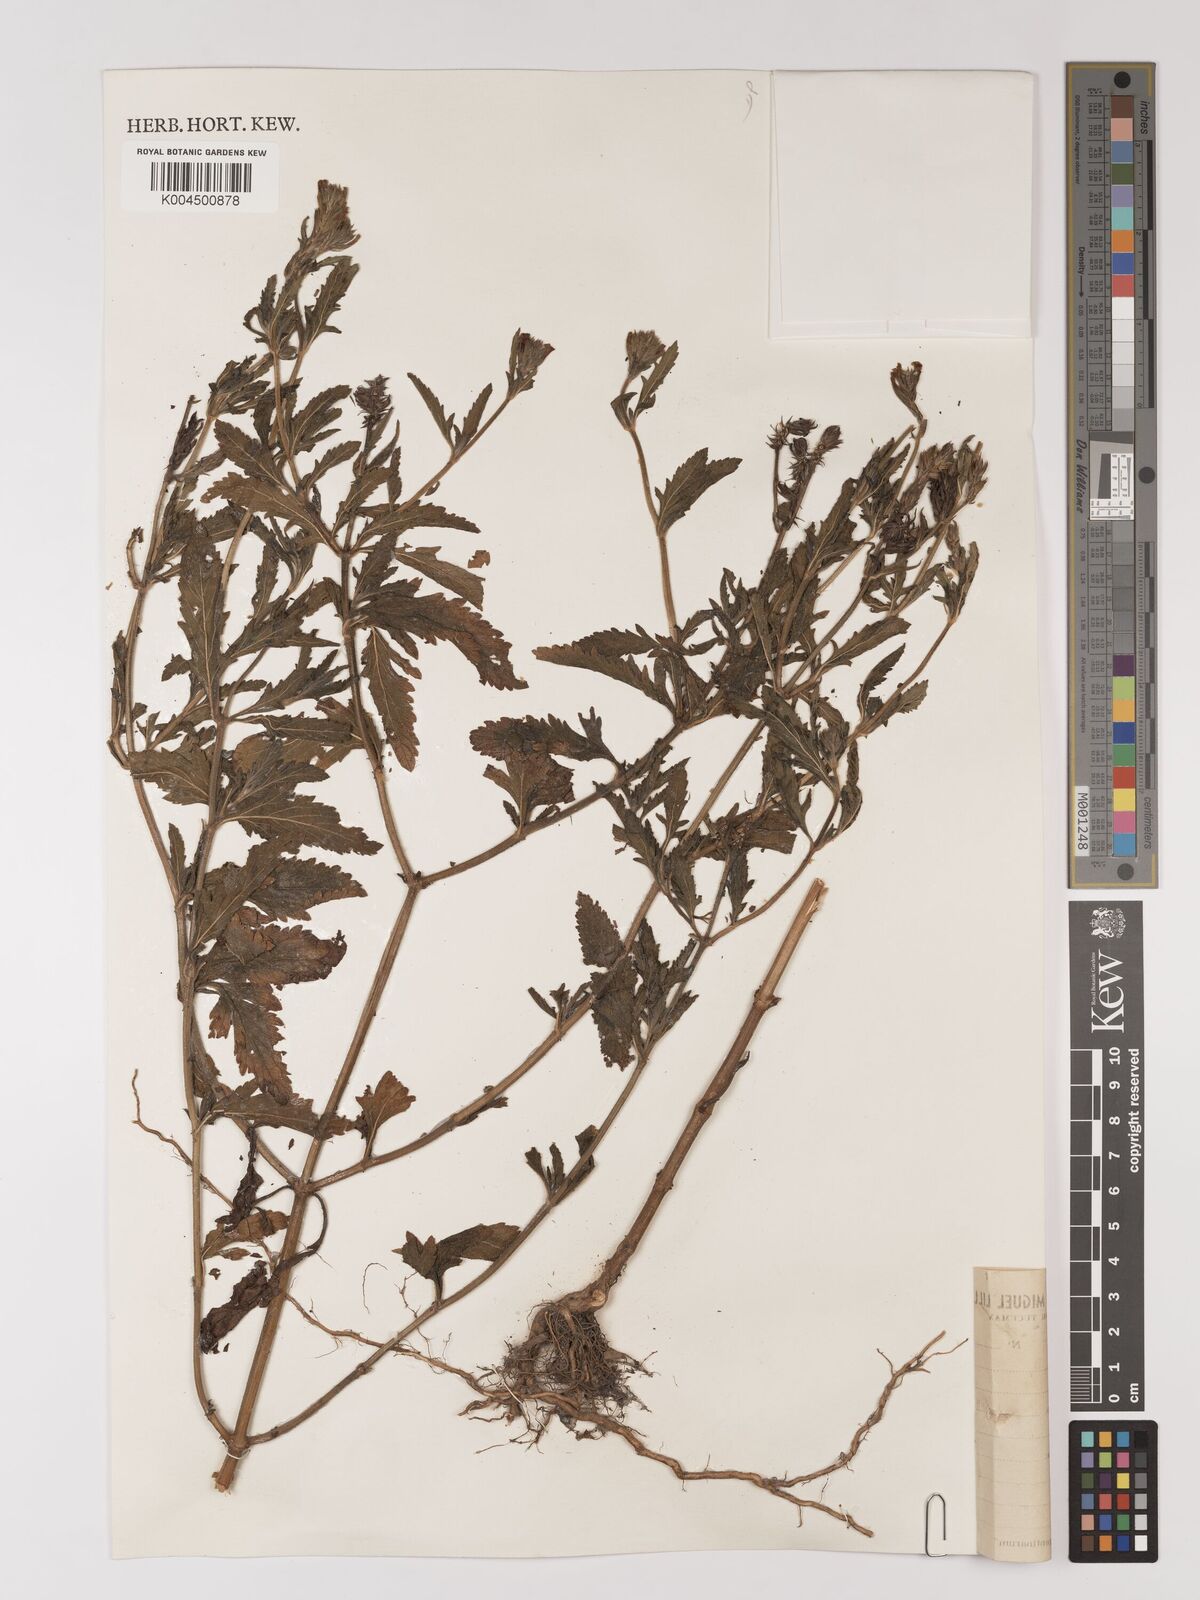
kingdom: Plantae
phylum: Tracheophyta
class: Magnoliopsida
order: Lamiales
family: Verbenaceae
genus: Verbena
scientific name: Verbena
